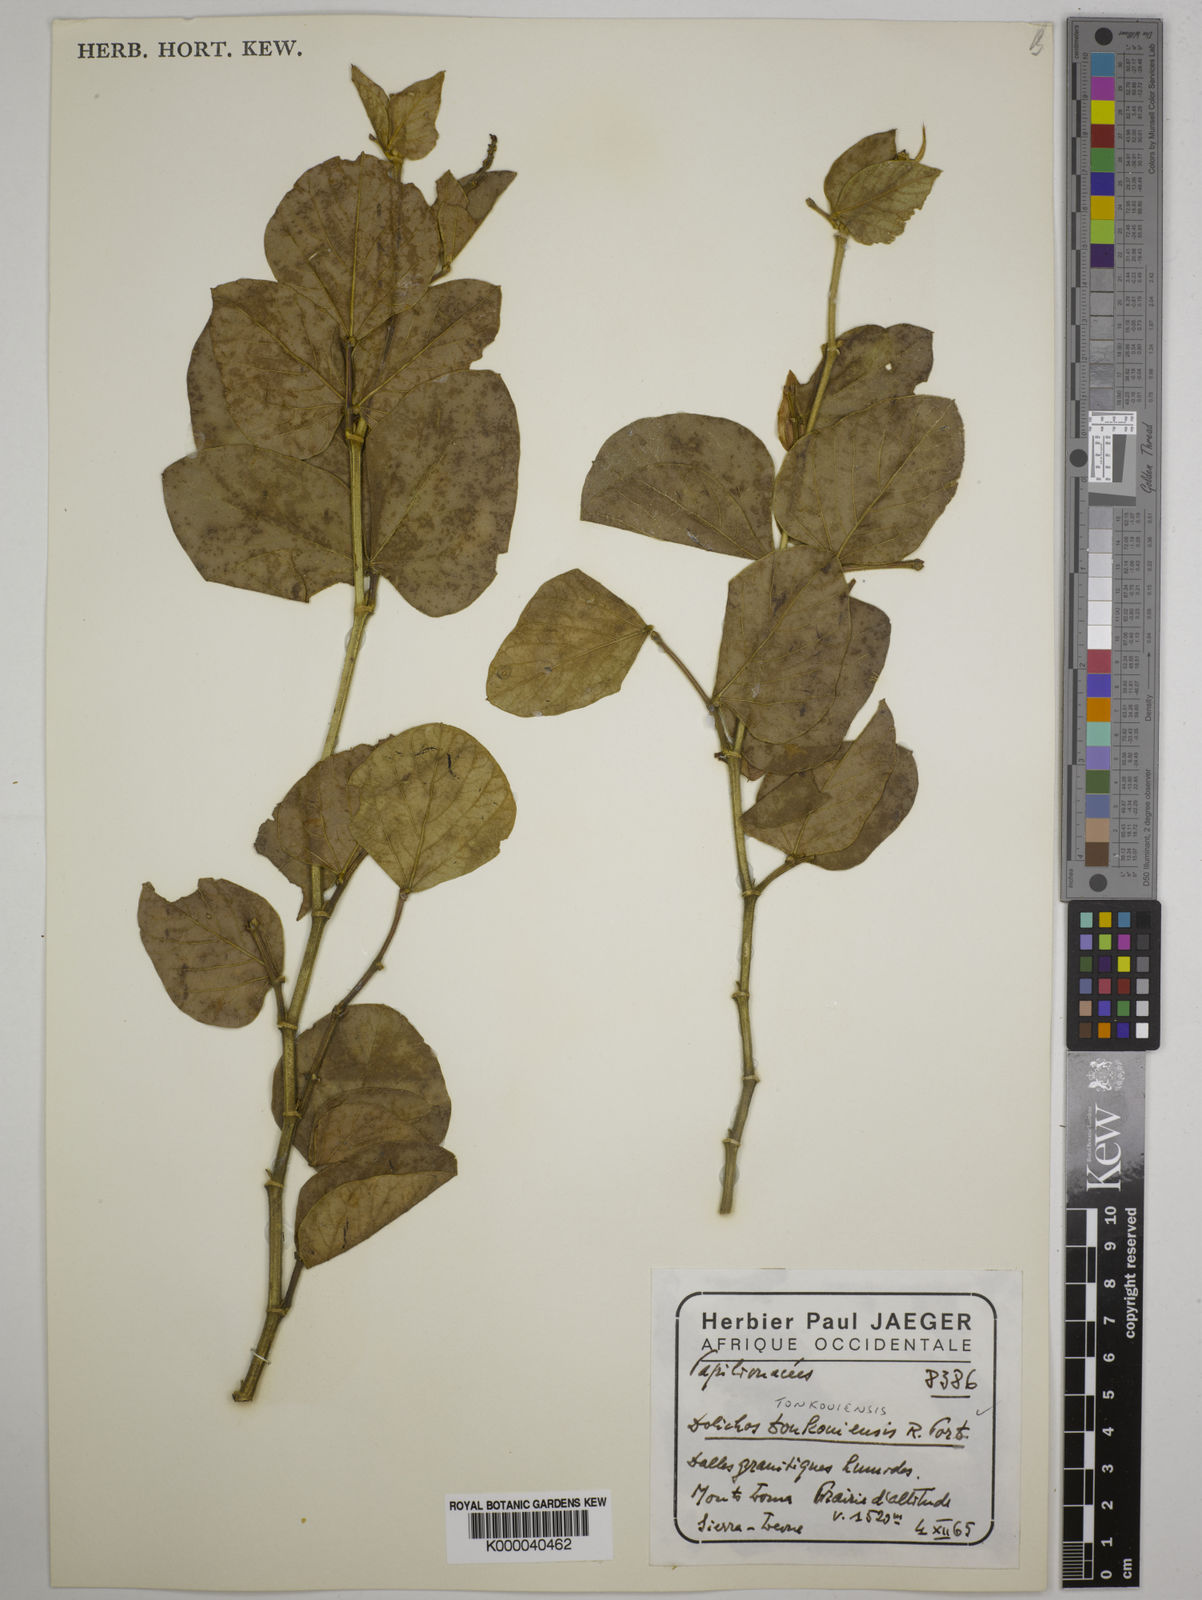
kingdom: Plantae
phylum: Tracheophyta
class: Magnoliopsida
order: Fabales
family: Fabaceae
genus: Dolichos
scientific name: Dolichos tonkouiensis
